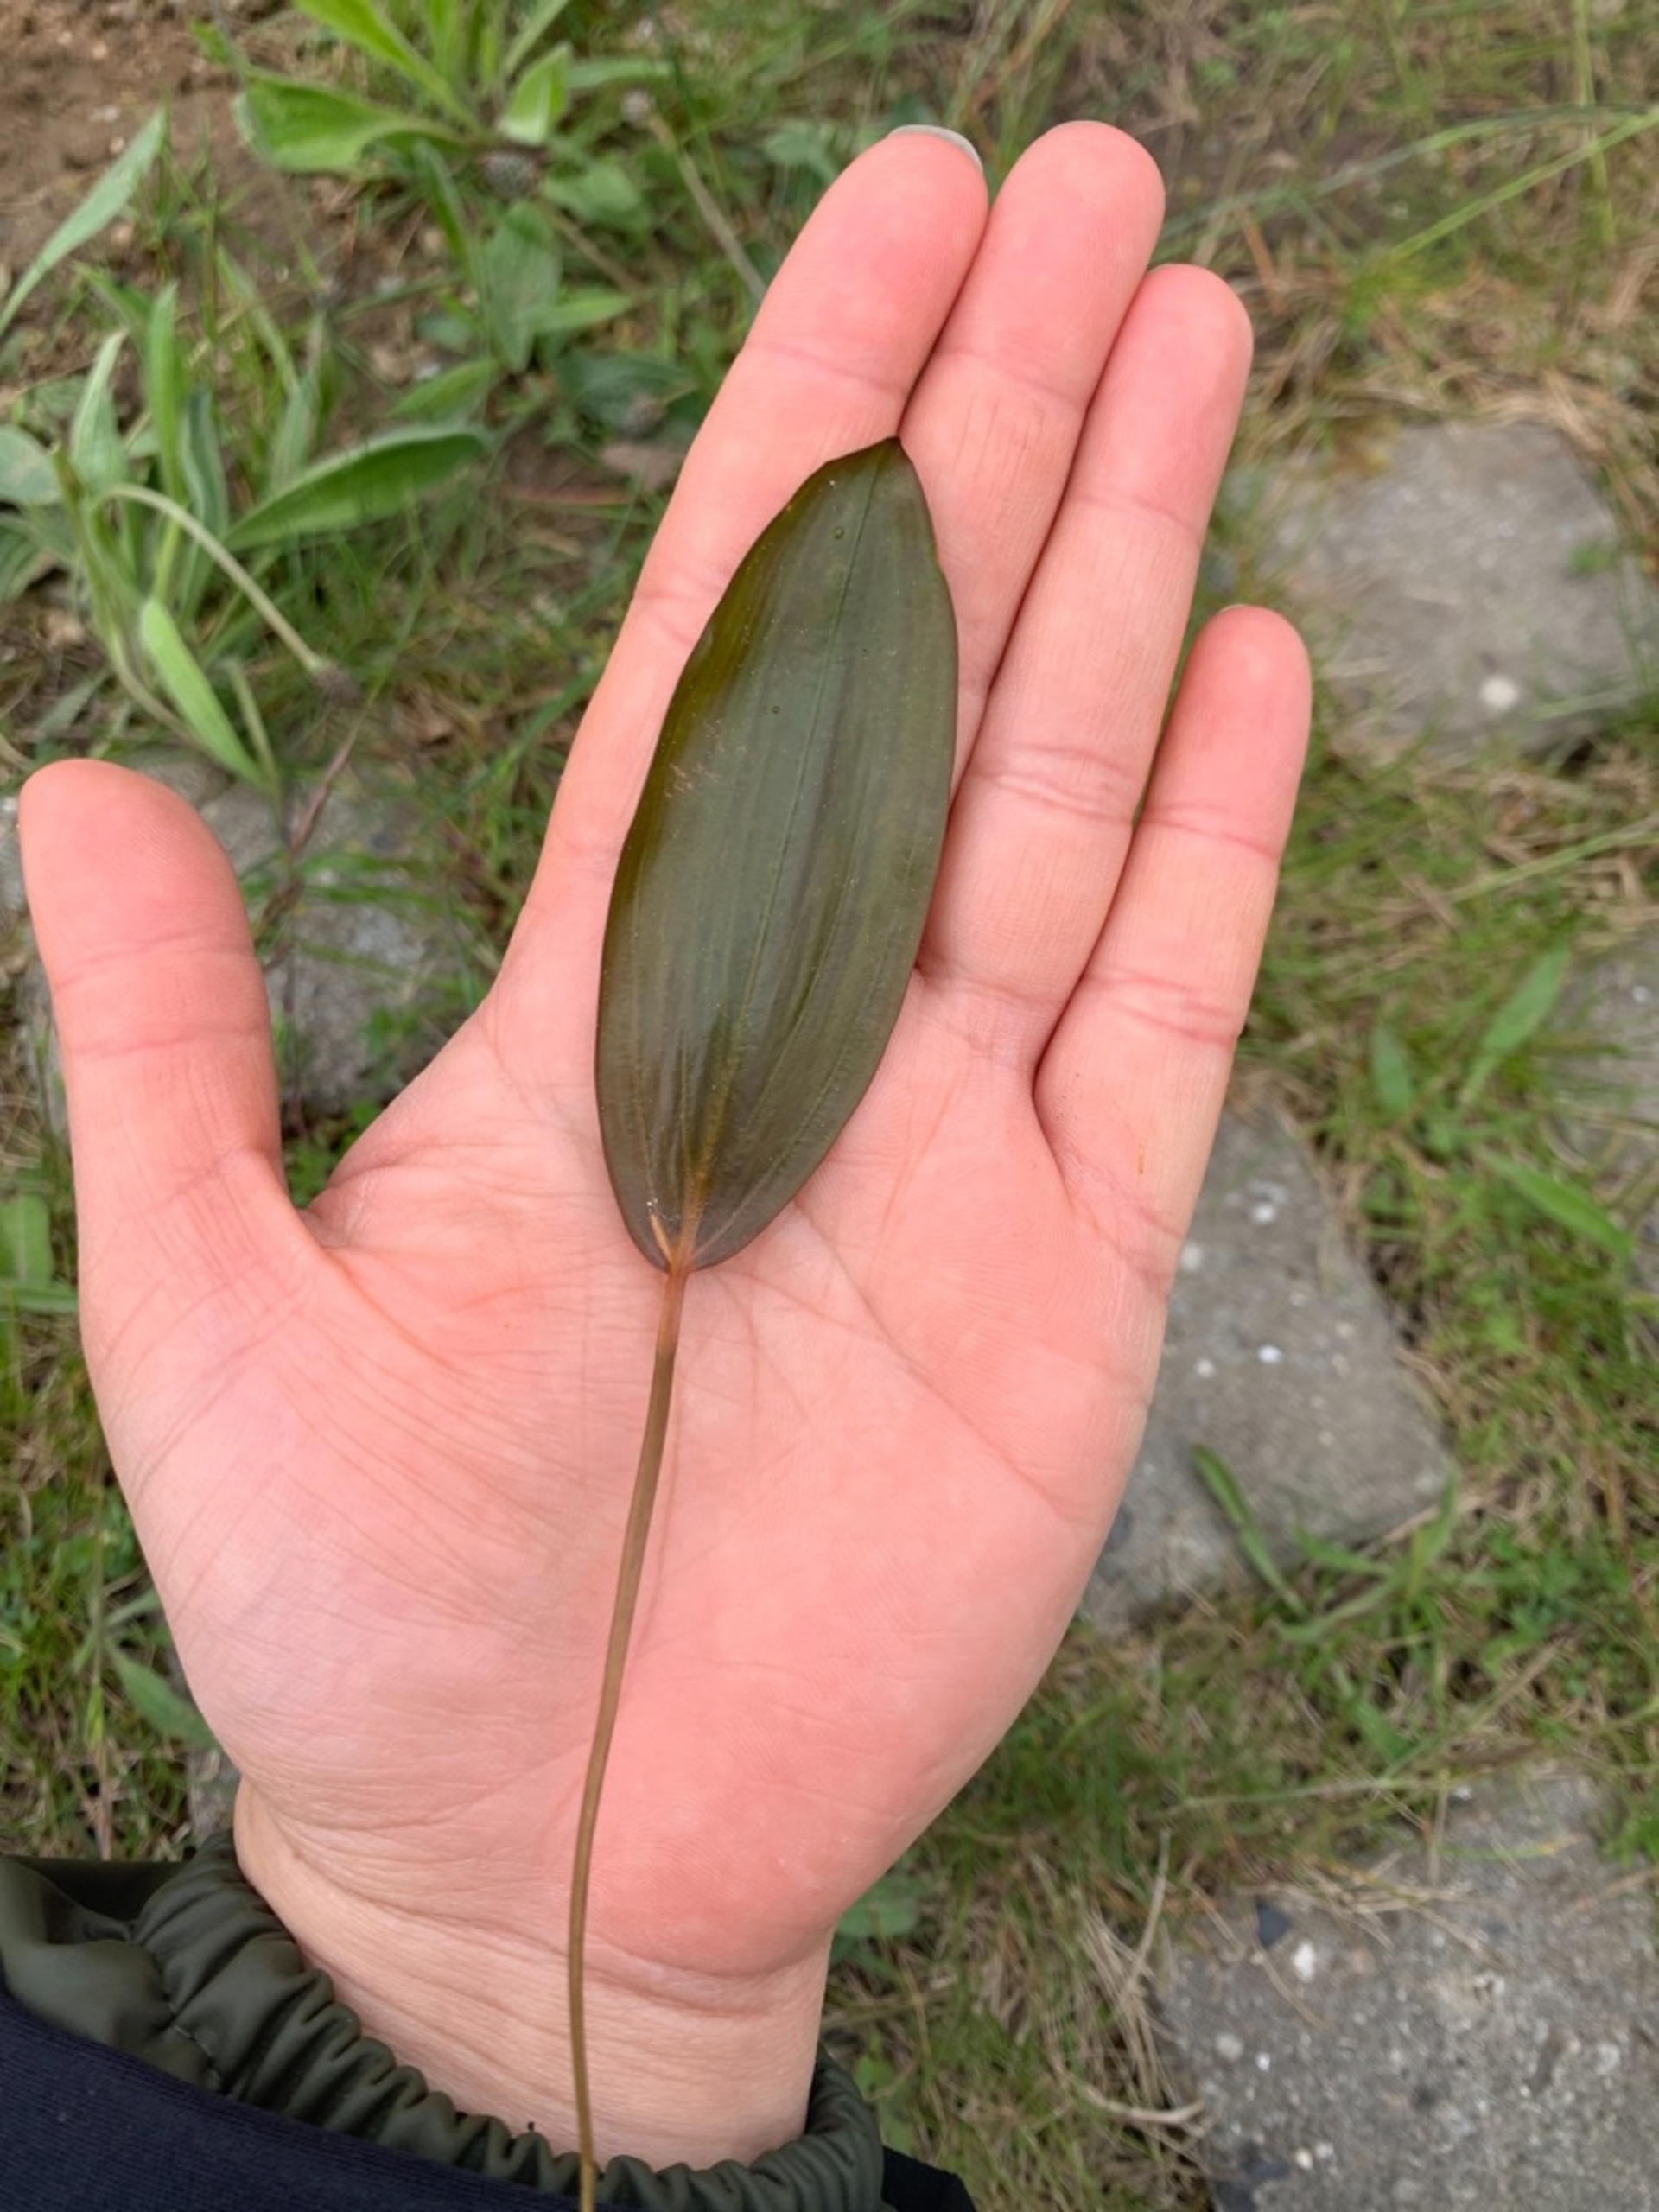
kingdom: Plantae
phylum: Tracheophyta
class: Liliopsida
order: Alismatales
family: Potamogetonaceae
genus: Potamogeton
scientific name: Potamogeton natans
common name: Svømmende vandaks
